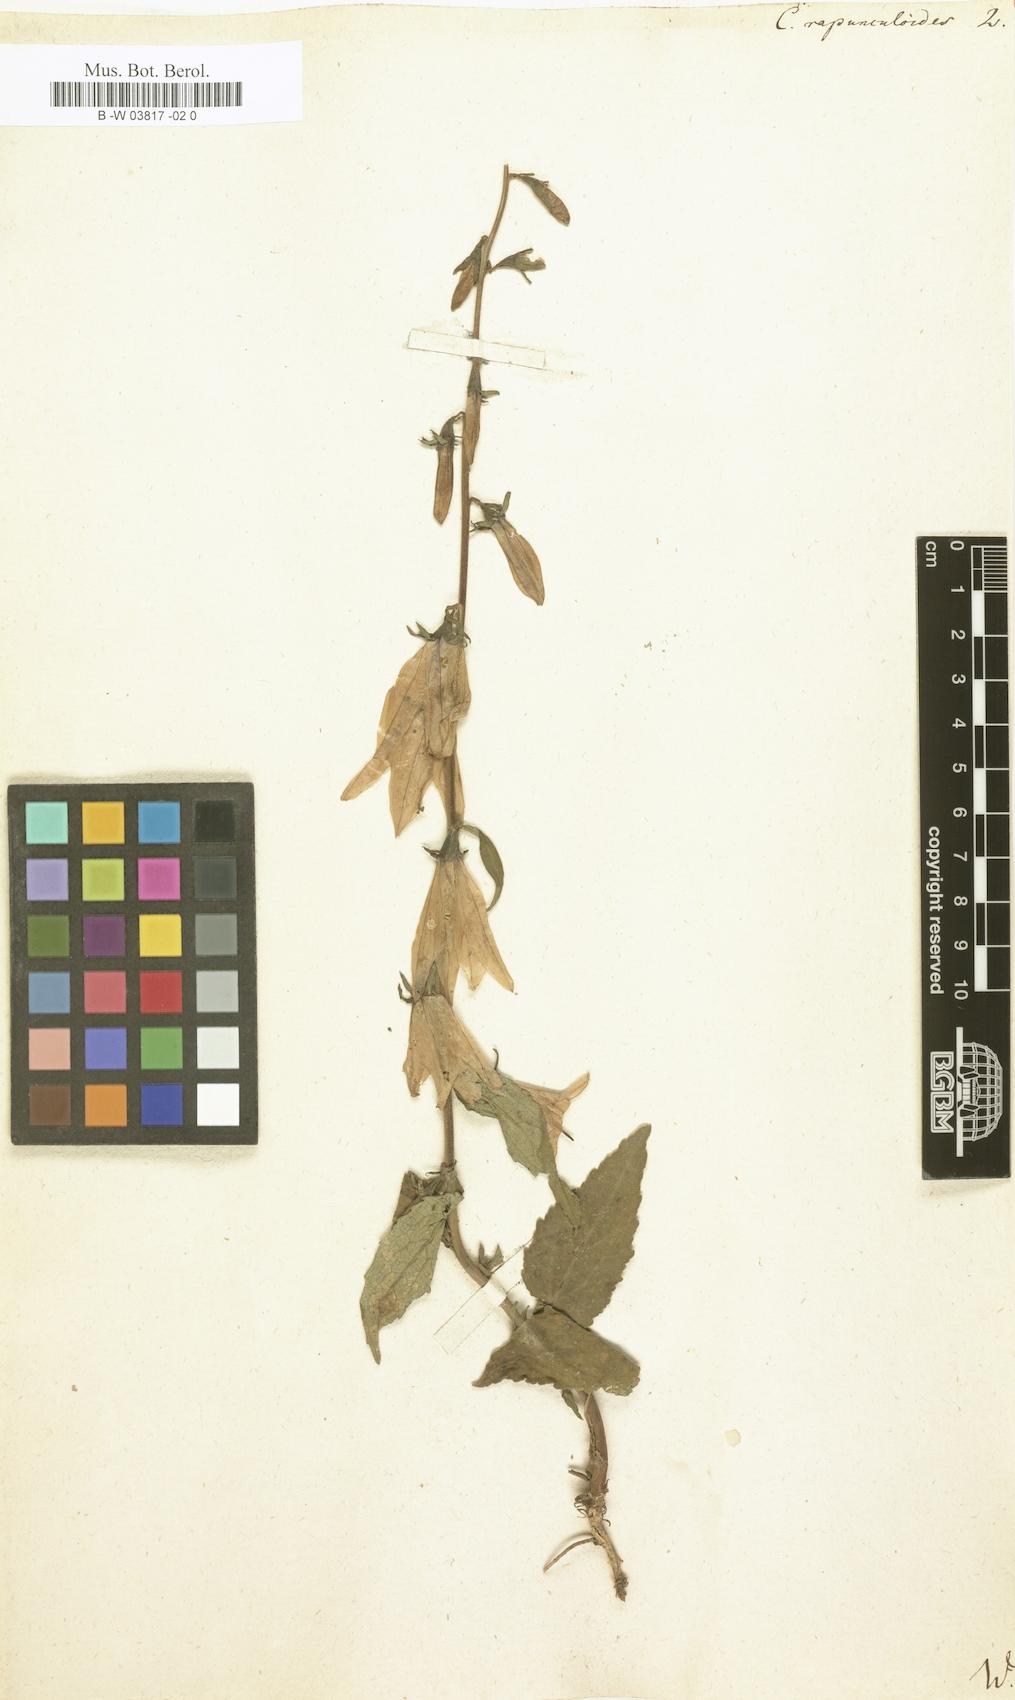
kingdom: Plantae
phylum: Tracheophyta
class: Magnoliopsida
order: Asterales
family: Campanulaceae
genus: Campanula
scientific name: Campanula rapunculoides
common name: Creeping bellflower
